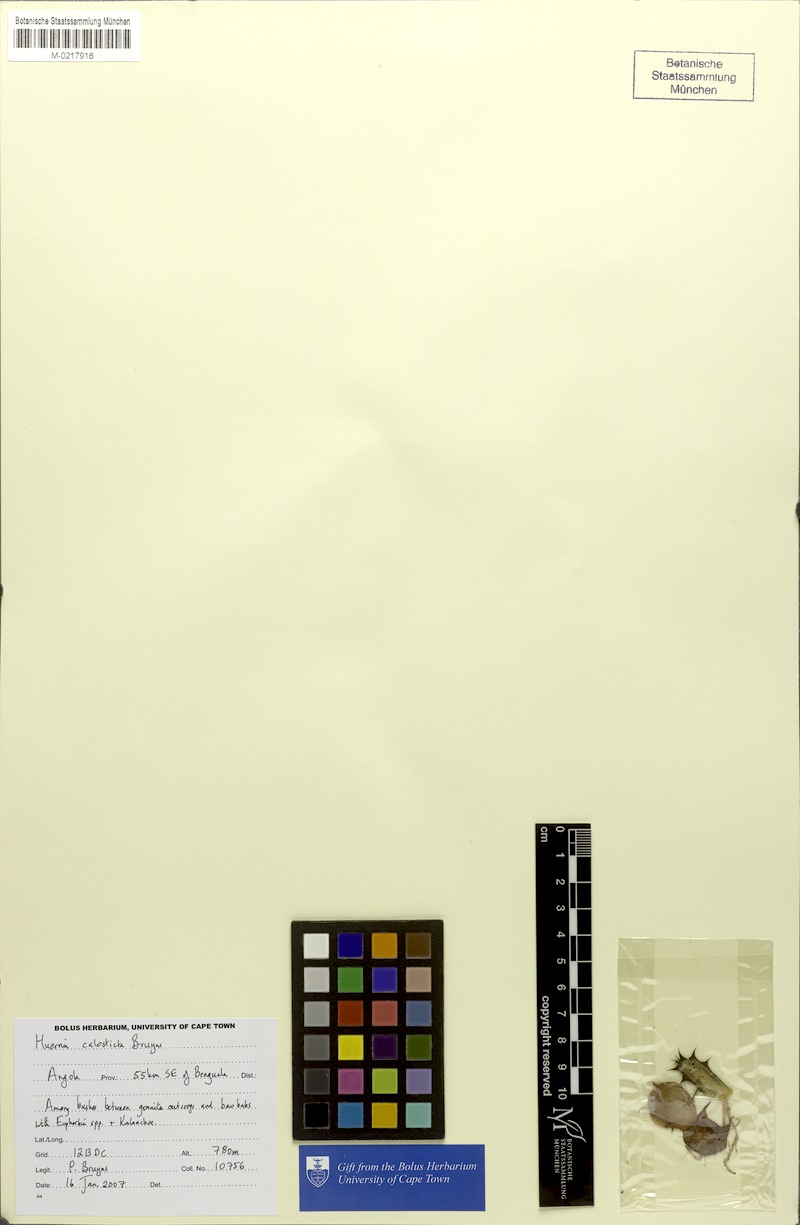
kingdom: Plantae
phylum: Tracheophyta
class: Magnoliopsida
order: Gentianales
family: Apocynaceae
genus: Ceropegia
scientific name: Ceropegia calosticta
